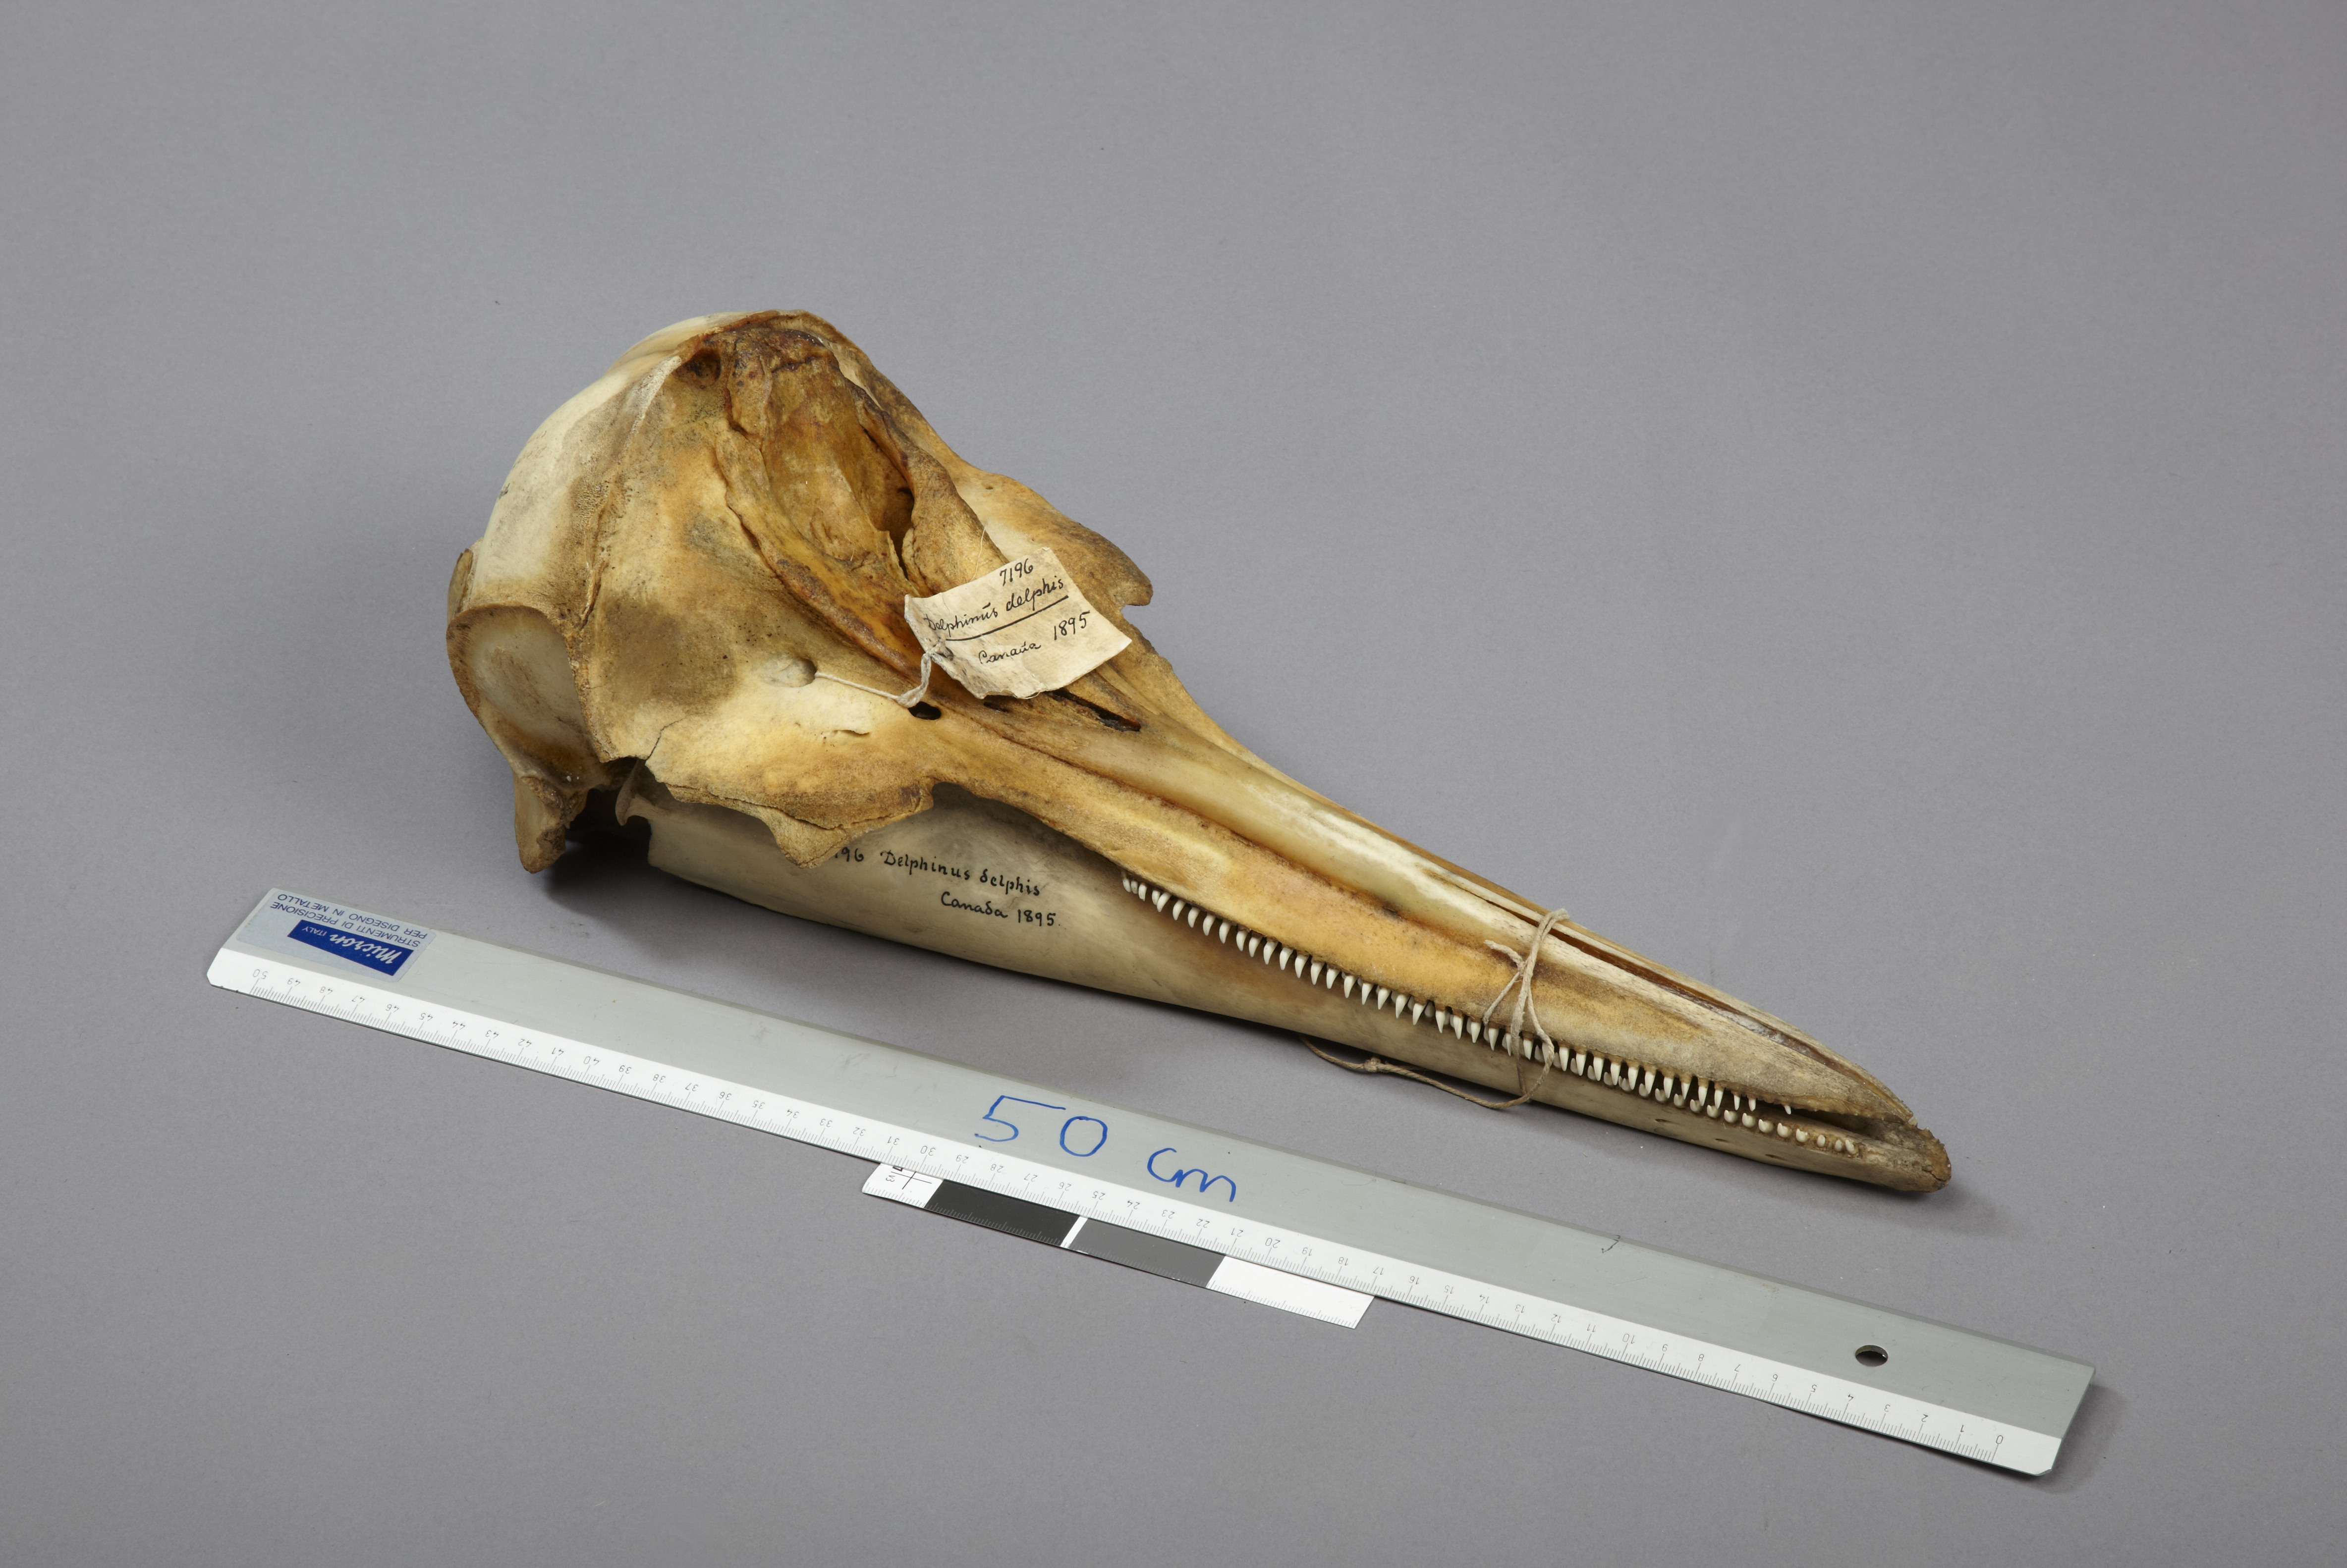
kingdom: Animalia
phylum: Chordata
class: Mammalia
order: Cetacea
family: Delphinidae
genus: Delphinus
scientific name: Delphinus delphis
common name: Common dolphin
